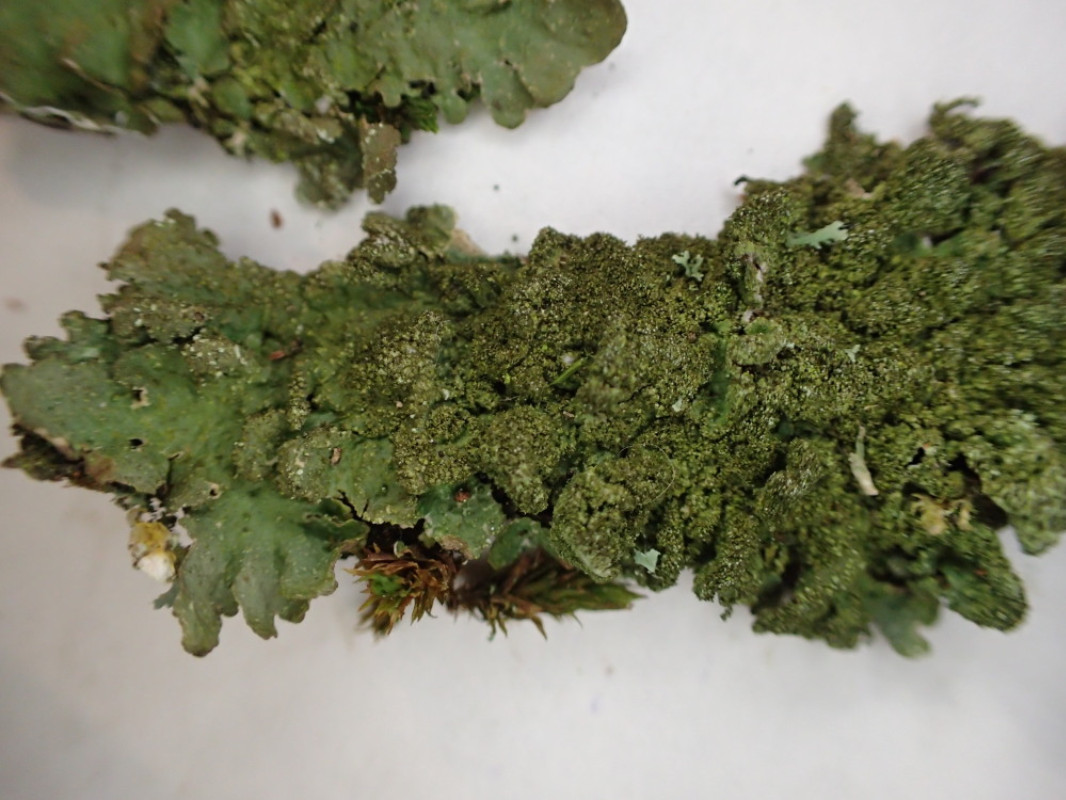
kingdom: Fungi
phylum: Ascomycota
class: Lecanoromycetes
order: Lecanorales
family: Parmeliaceae
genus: Melanelixia
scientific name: Melanelixia subaurifera
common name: guldpudret skållav
